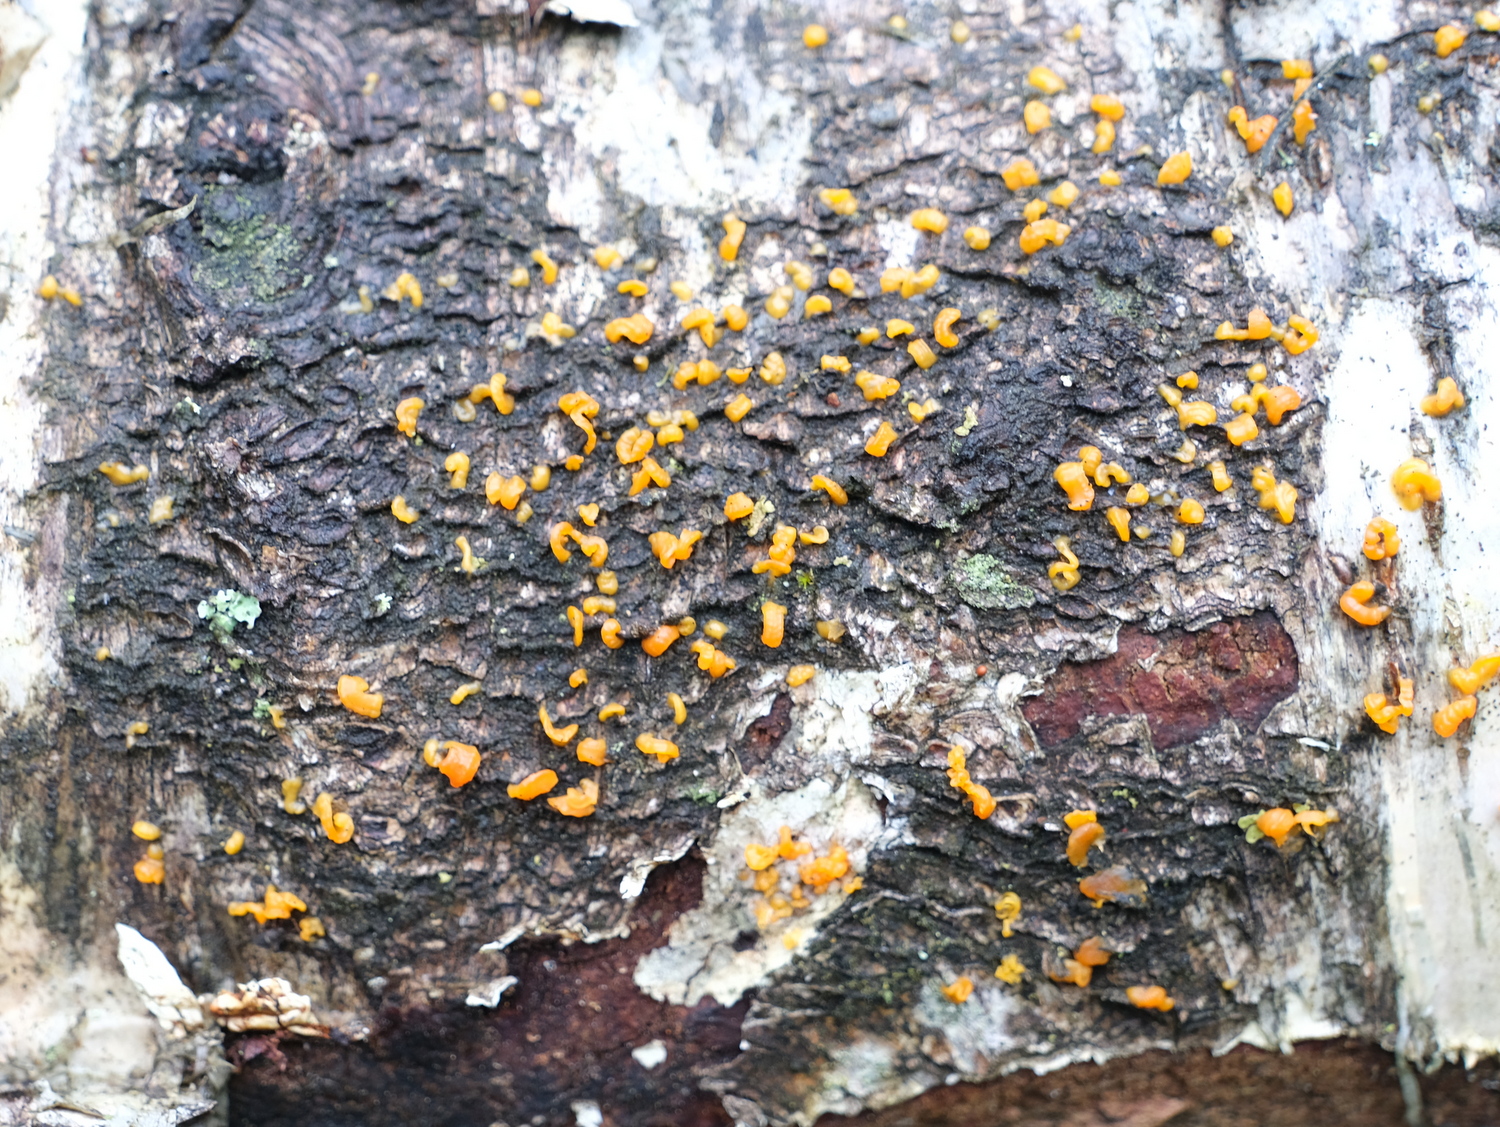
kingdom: Fungi
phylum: Ascomycota
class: Sordariomycetes
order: Xylariales
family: Diatrypaceae
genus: Diatrype
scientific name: Diatrype
